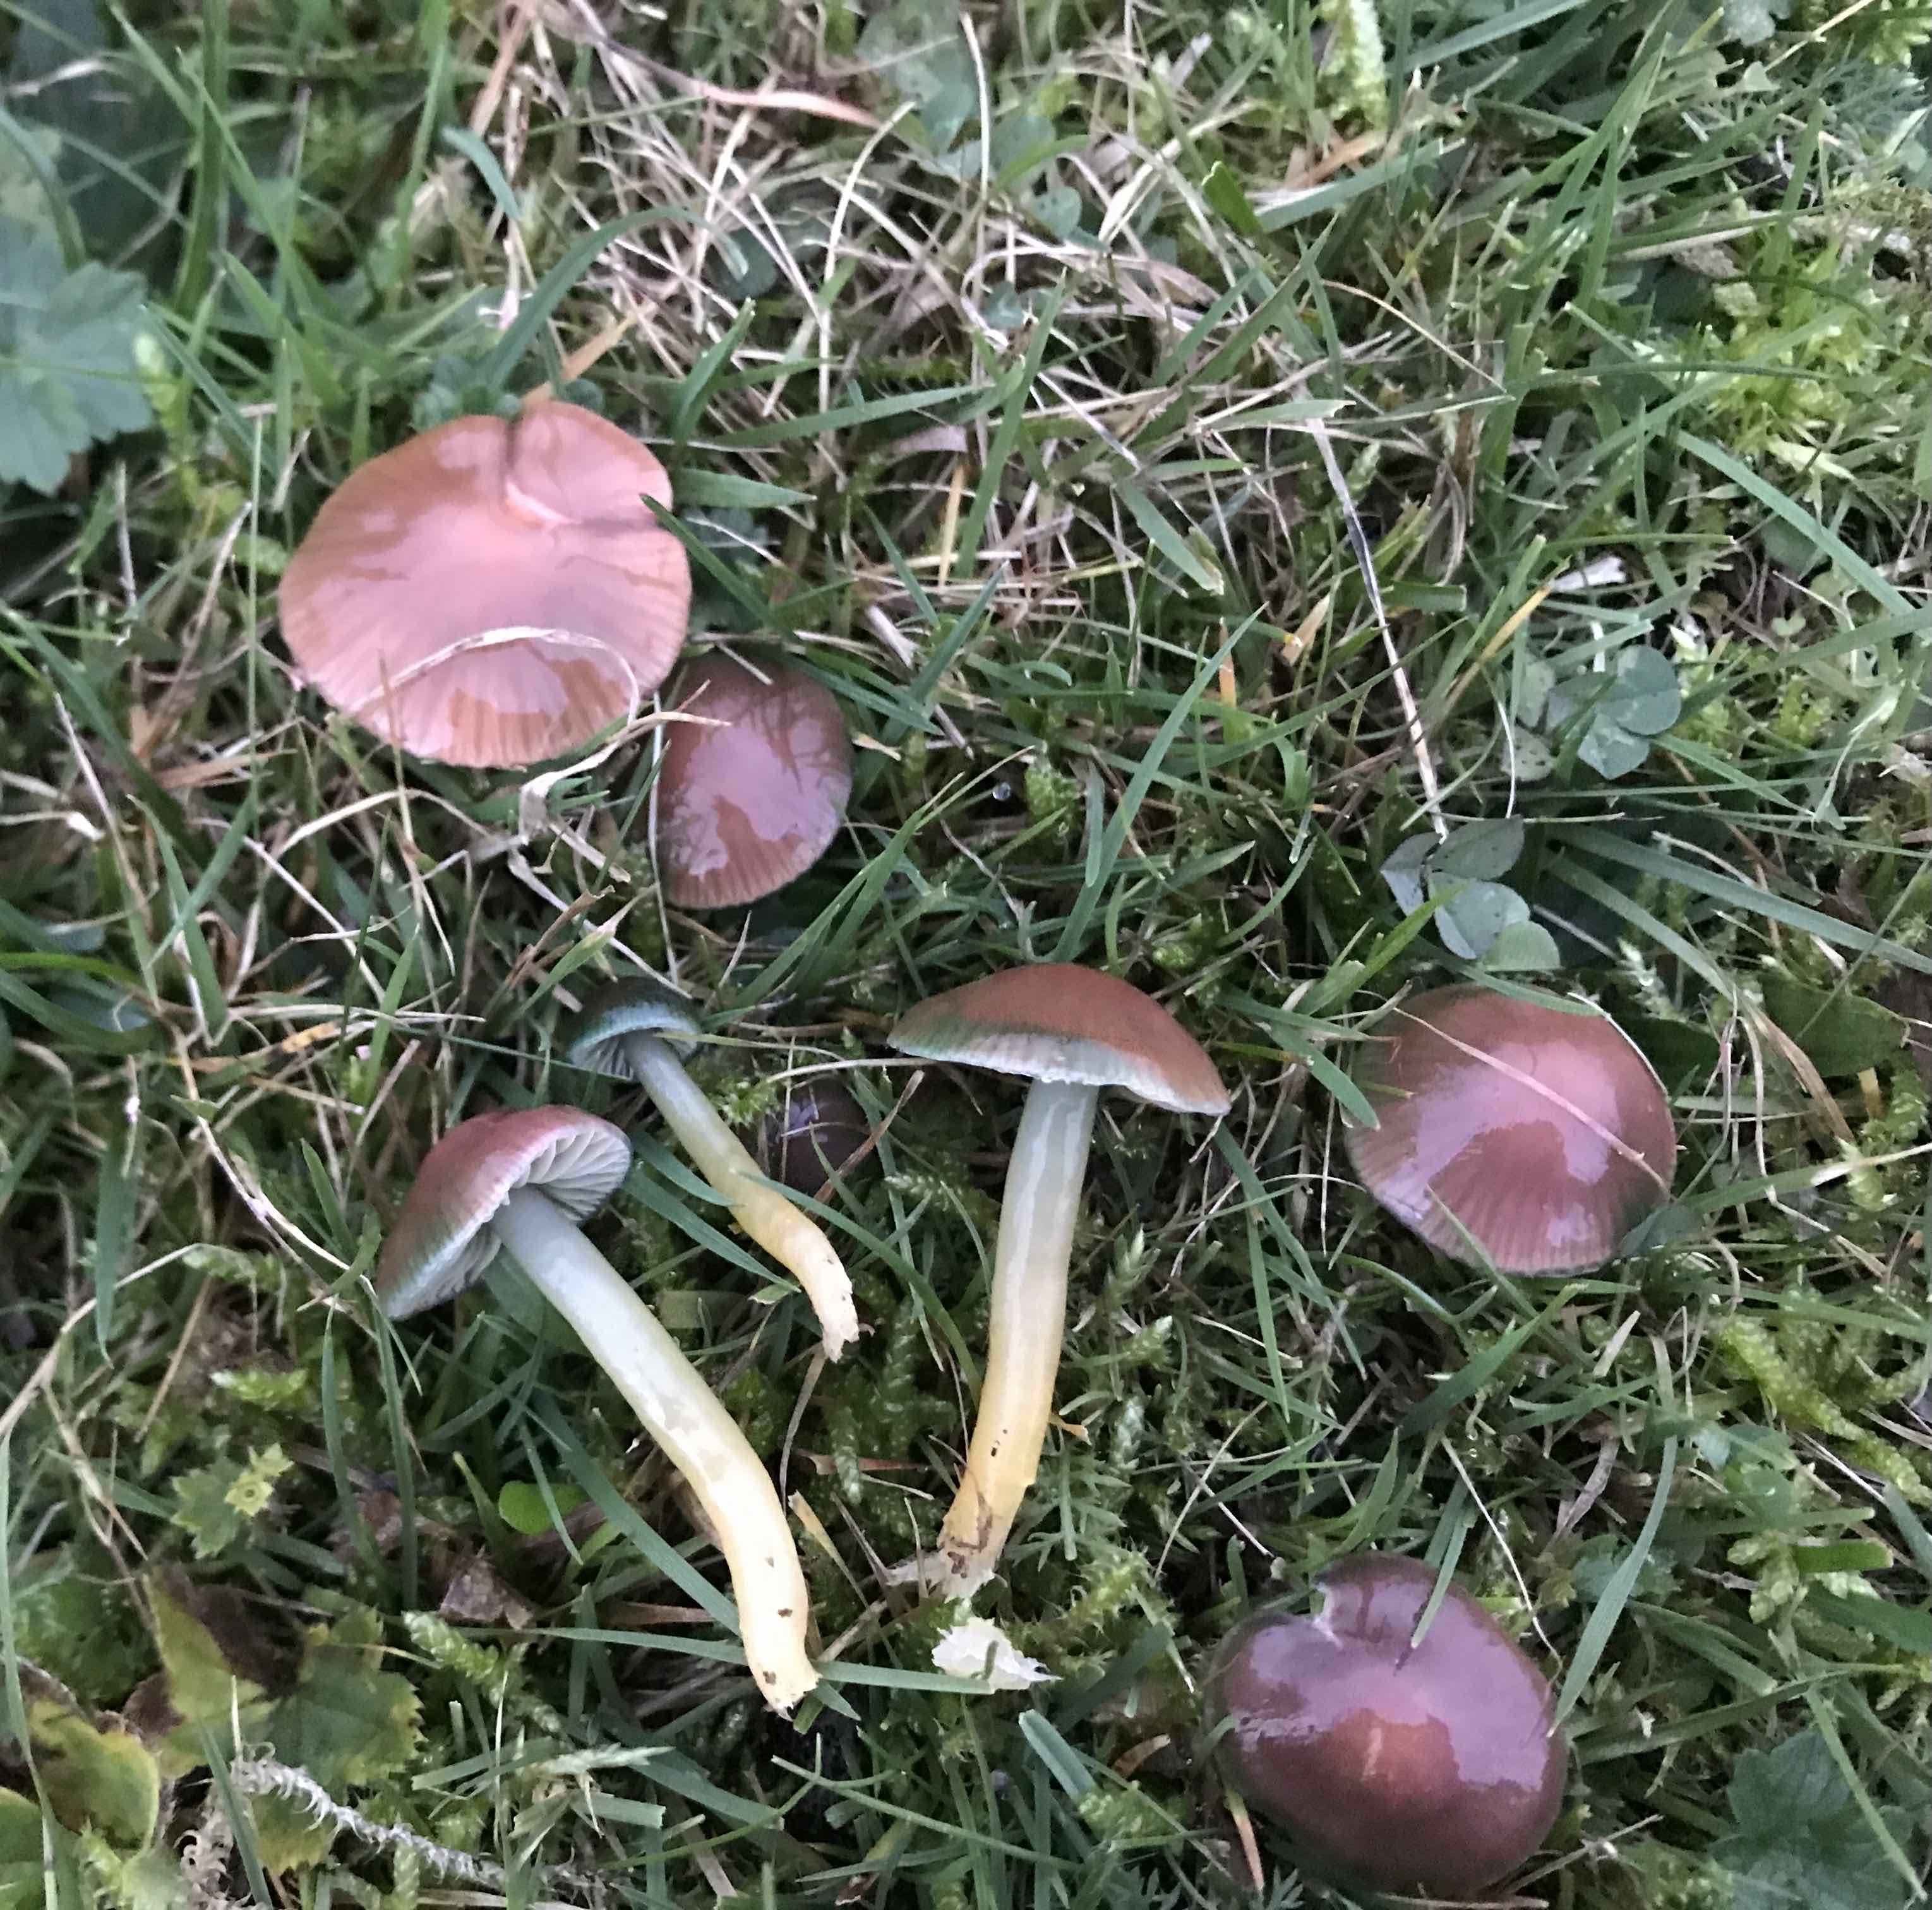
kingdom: Fungi
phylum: Basidiomycota
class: Agaricomycetes
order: Agaricales
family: Hygrophoraceae
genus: Gliophorus
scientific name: Gliophorus psittacinus
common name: papegøje-vokshat
